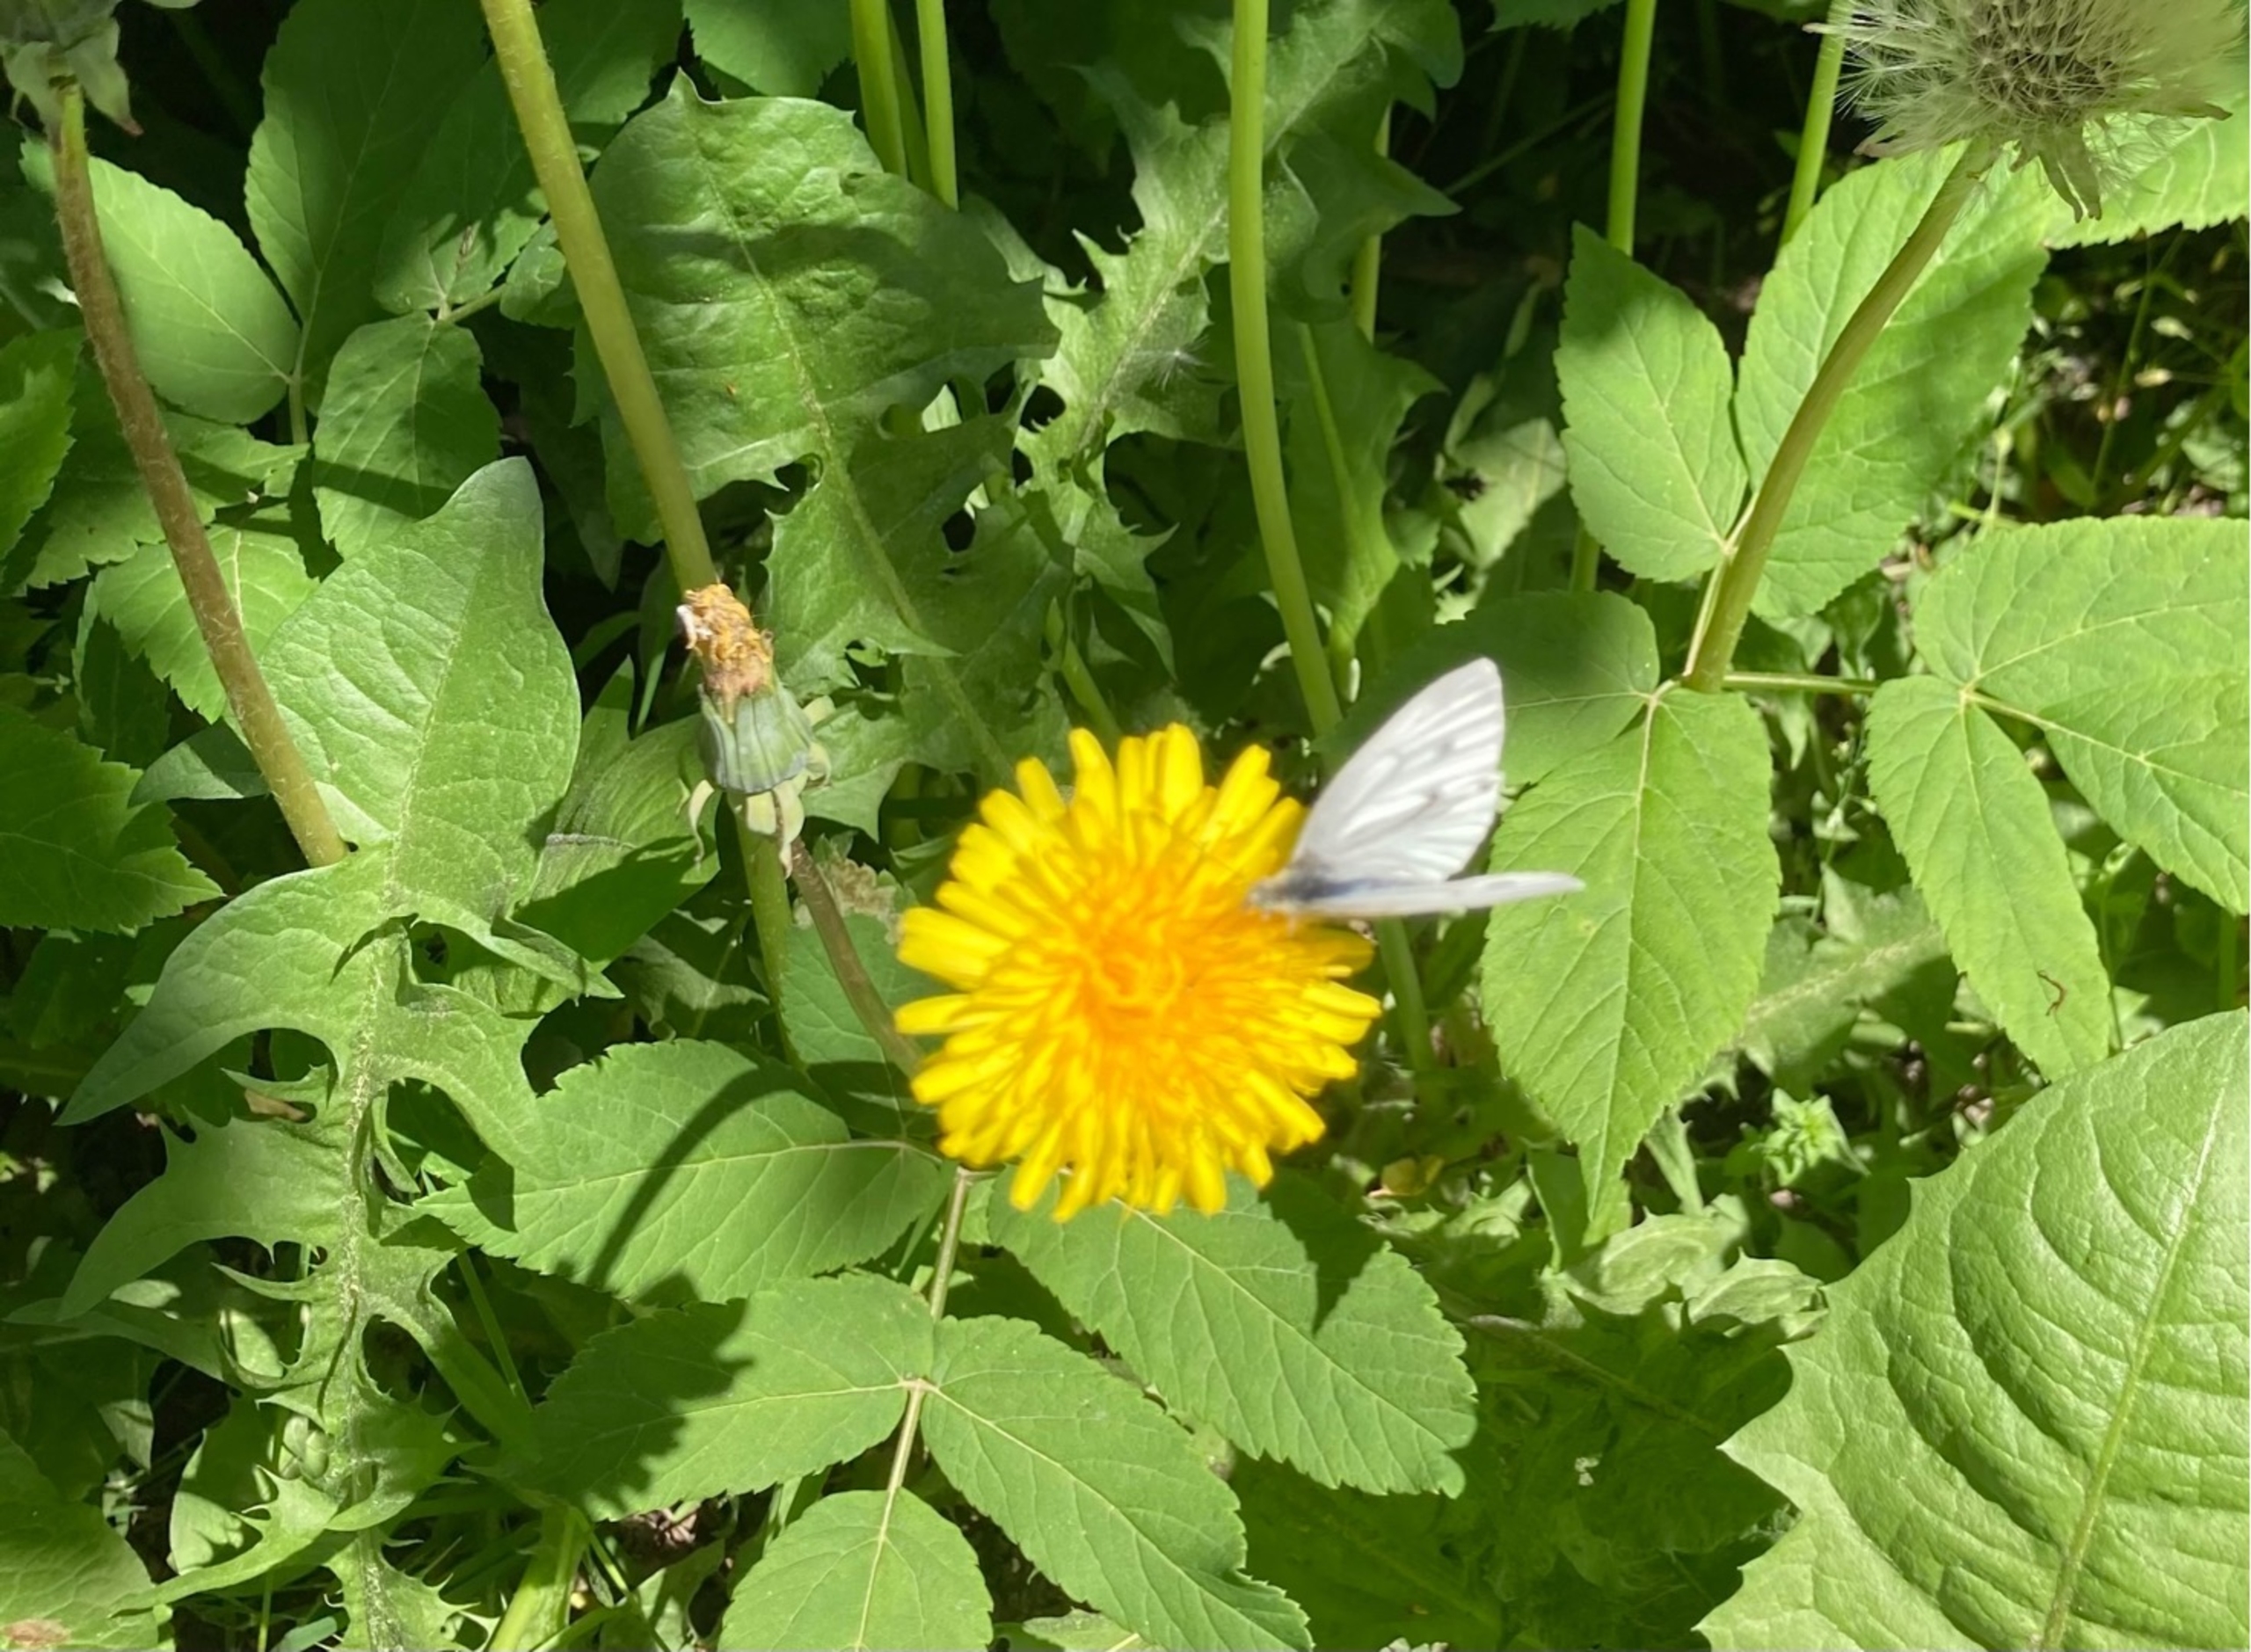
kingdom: Animalia
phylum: Arthropoda
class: Insecta
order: Lepidoptera
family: Pieridae
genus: Pieris
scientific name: Pieris napi
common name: Grønåret kålsommerfugl
